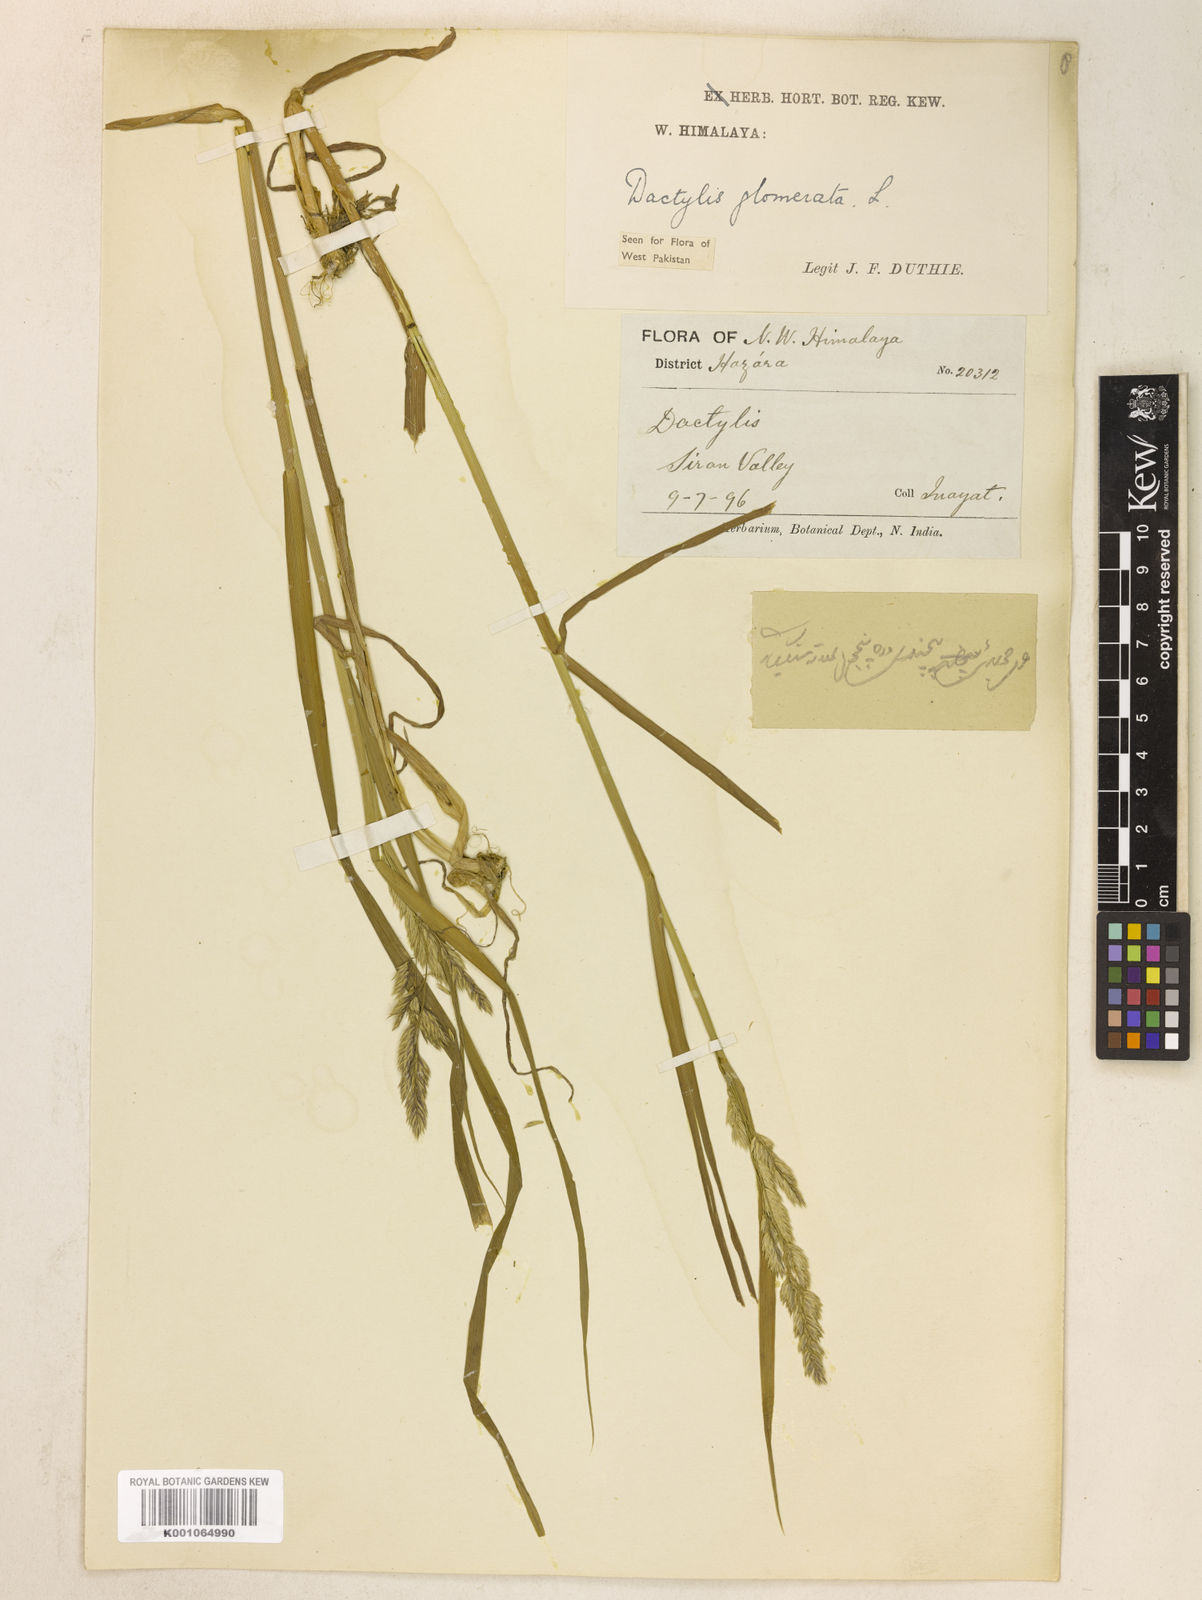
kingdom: Plantae
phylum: Tracheophyta
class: Liliopsida
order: Poales
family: Poaceae
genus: Dactylis
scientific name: Dactylis glomerata
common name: Orchardgrass
